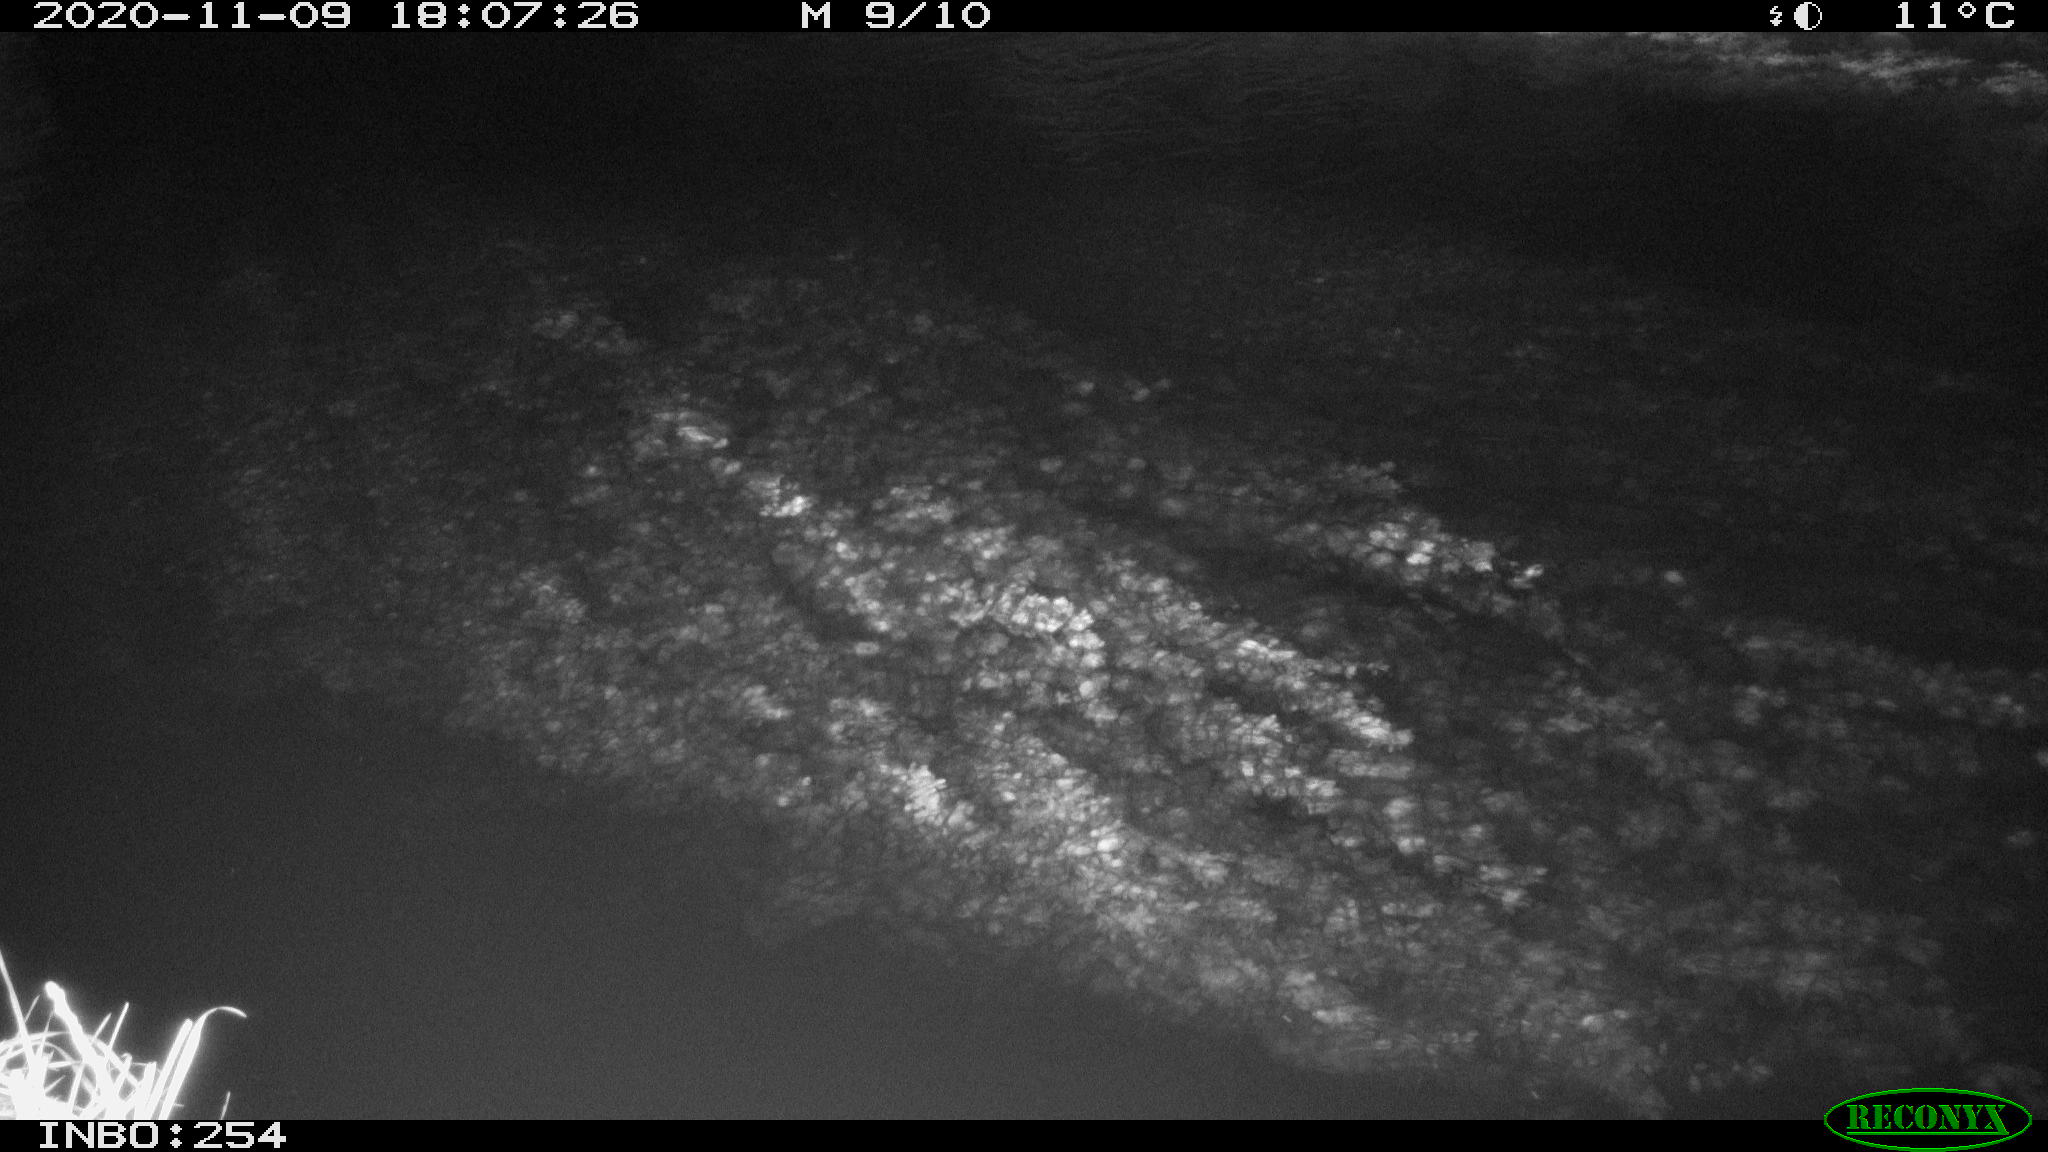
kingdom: Animalia
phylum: Chordata
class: Aves
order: Anseriformes
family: Anatidae
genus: Anas
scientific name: Anas platyrhynchos
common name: Mallard
